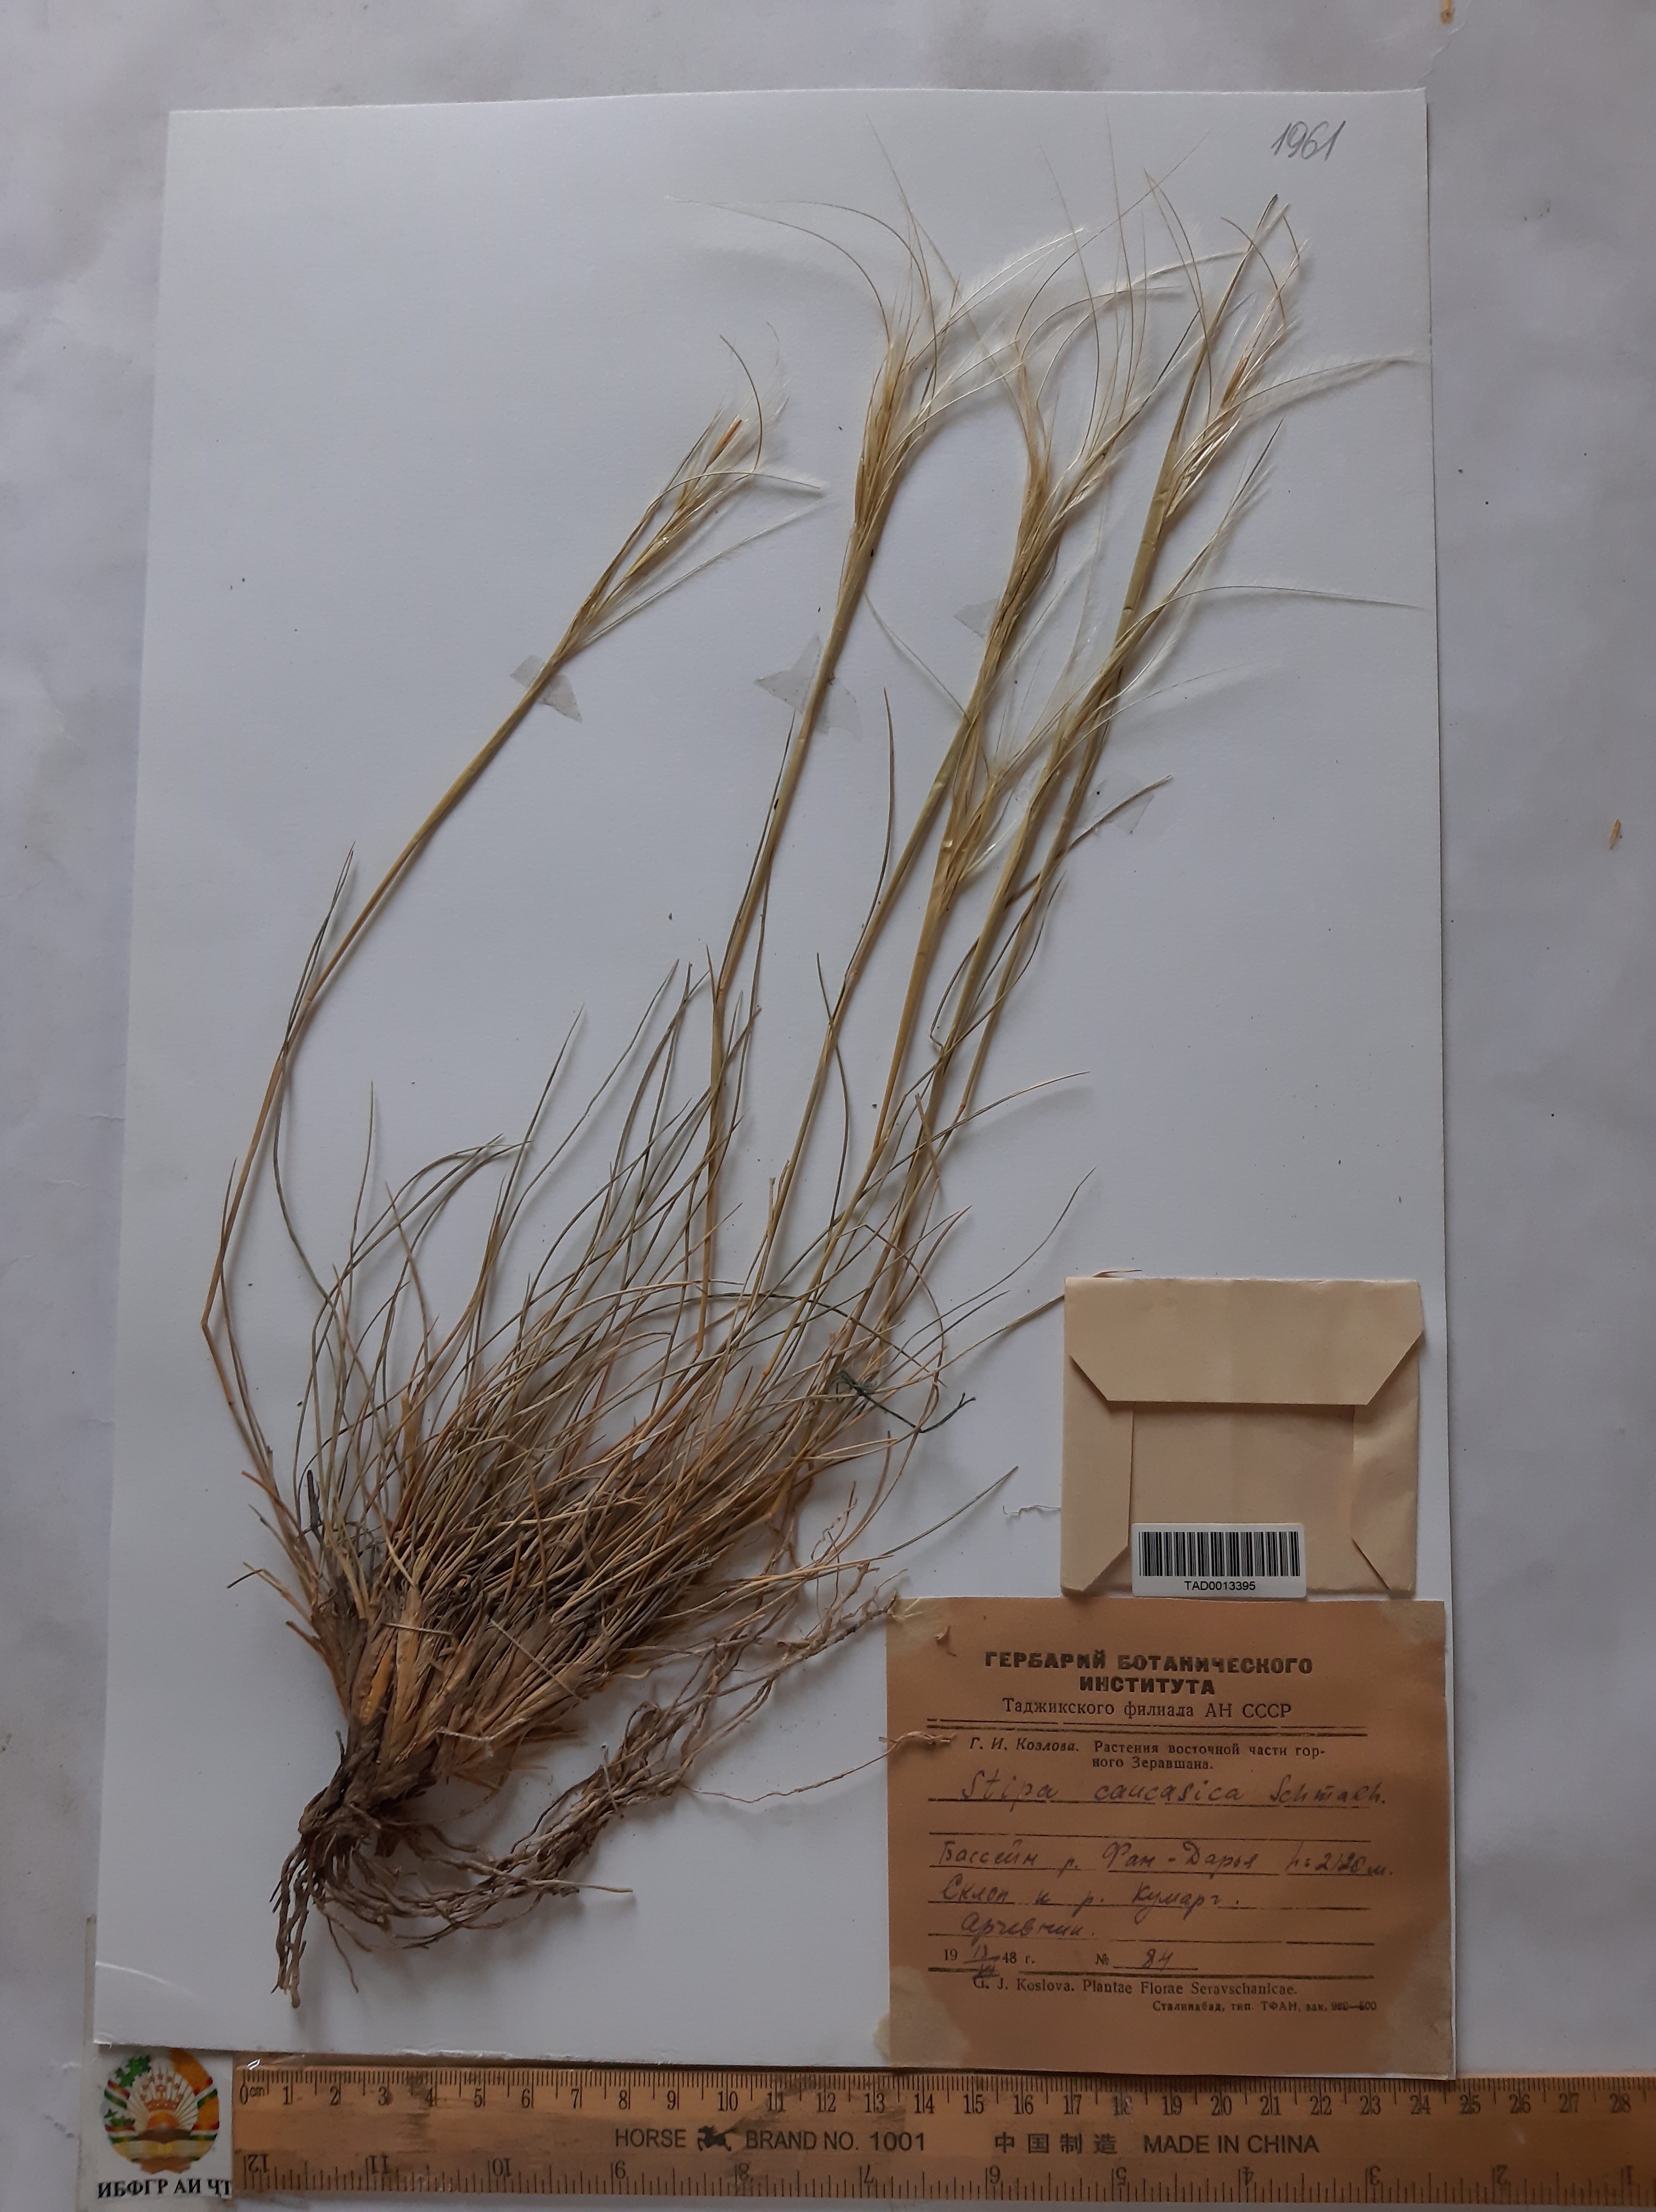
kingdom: Plantae
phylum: Tracheophyta
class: Liliopsida
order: Poales
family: Poaceae
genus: Stipa
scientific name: Stipa caucasica
